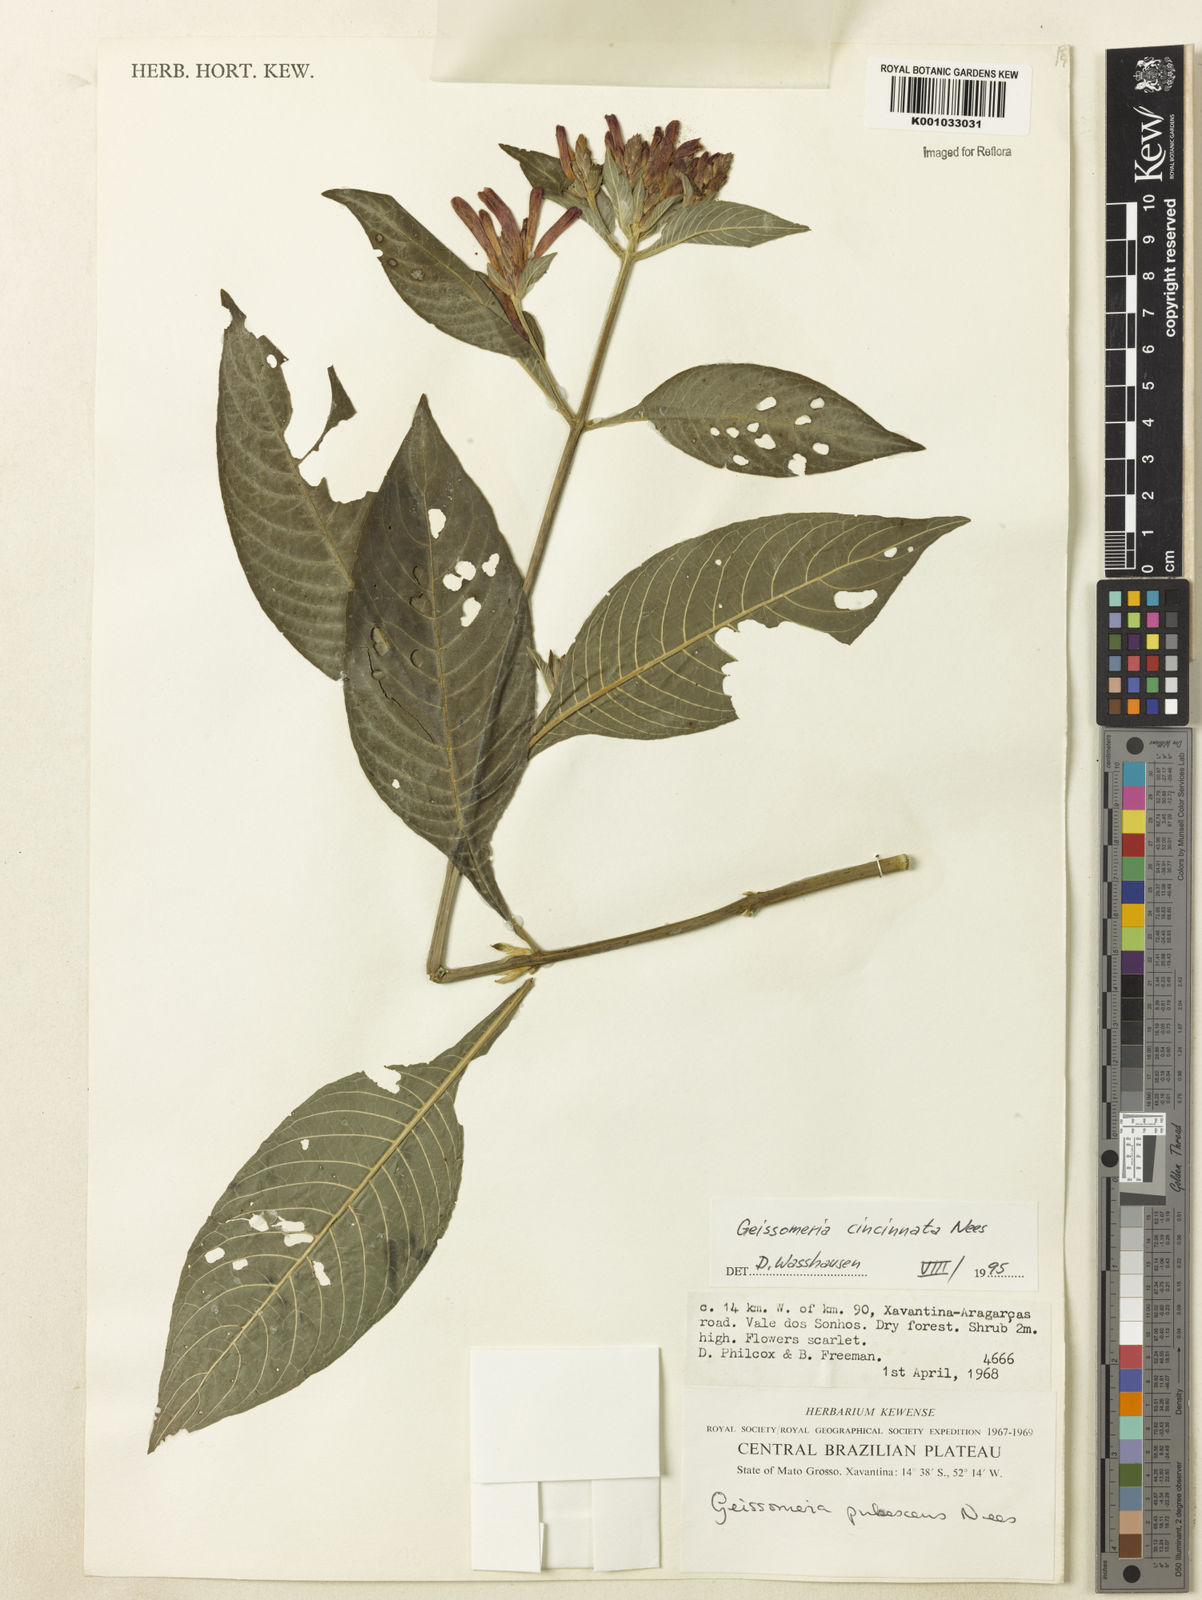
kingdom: Plantae
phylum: Tracheophyta
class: Magnoliopsida
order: Lamiales
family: Acanthaceae
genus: Aphelandra
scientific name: Aphelandra longiflora
